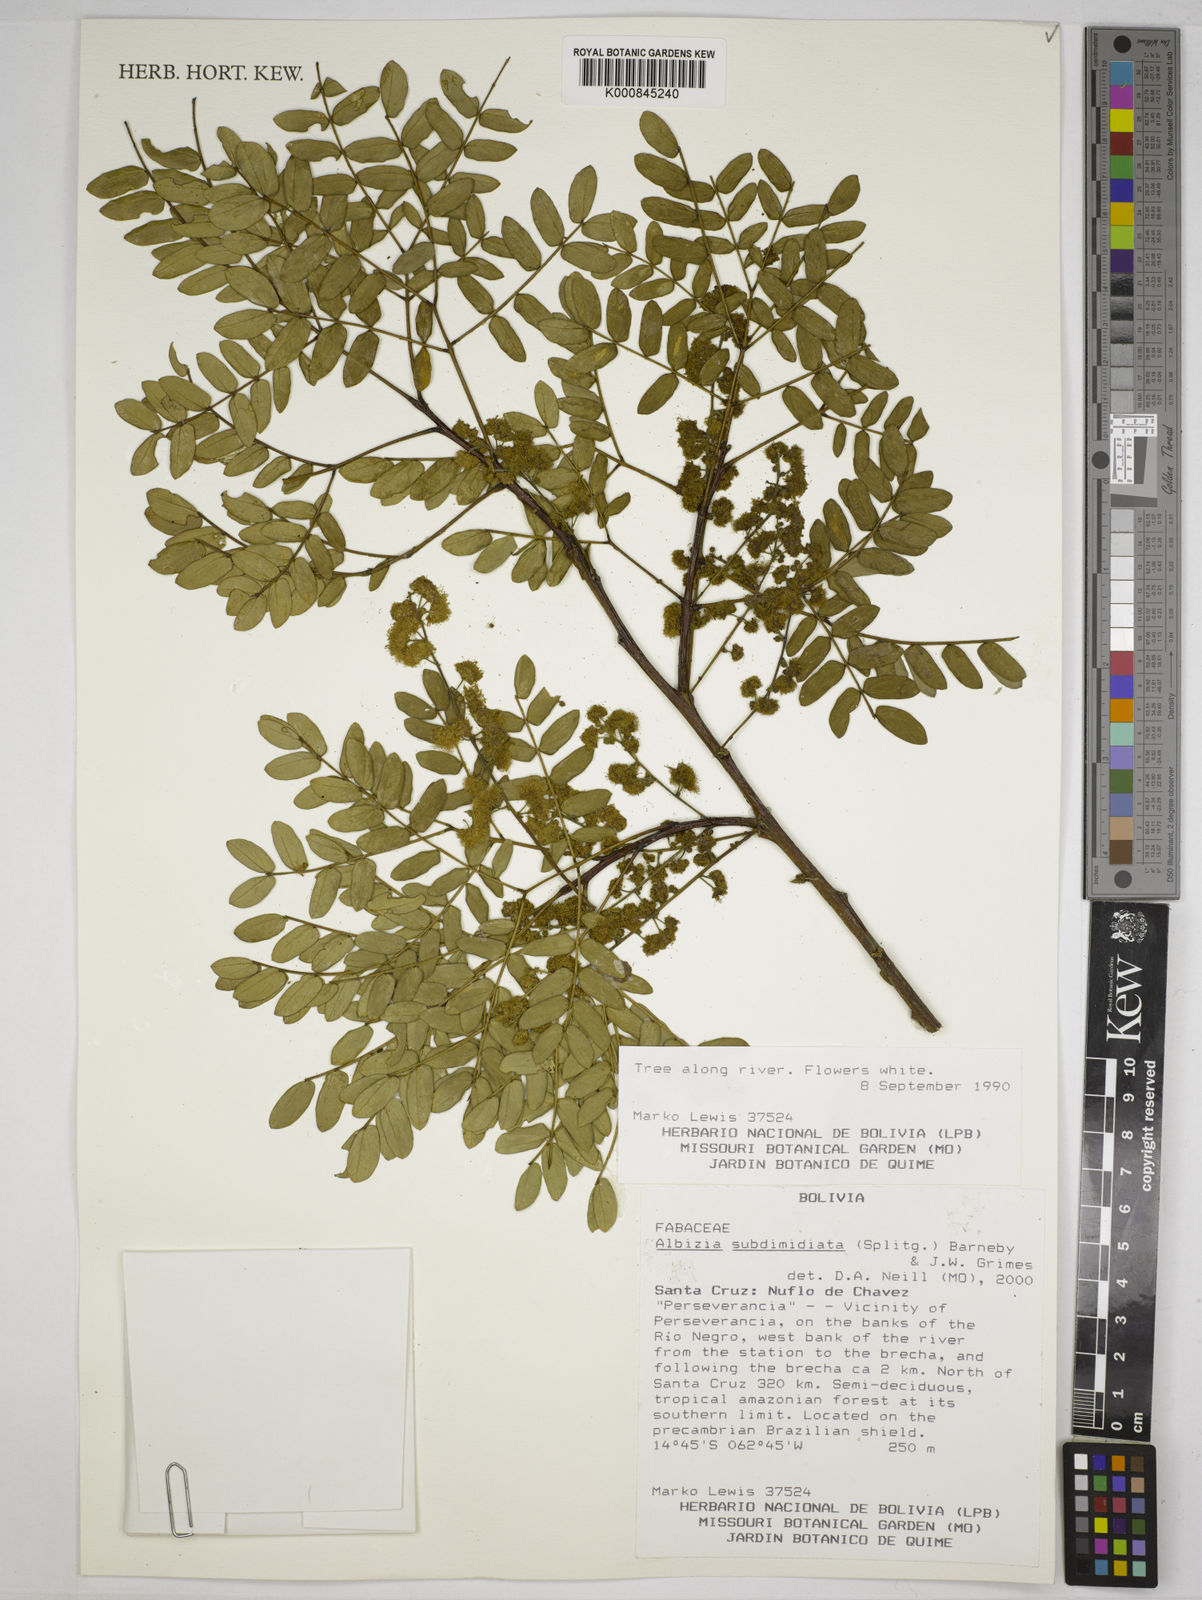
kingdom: Plantae
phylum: Tracheophyta
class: Magnoliopsida
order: Fabales
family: Fabaceae
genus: Albizia
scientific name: Albizia subdimidiata
